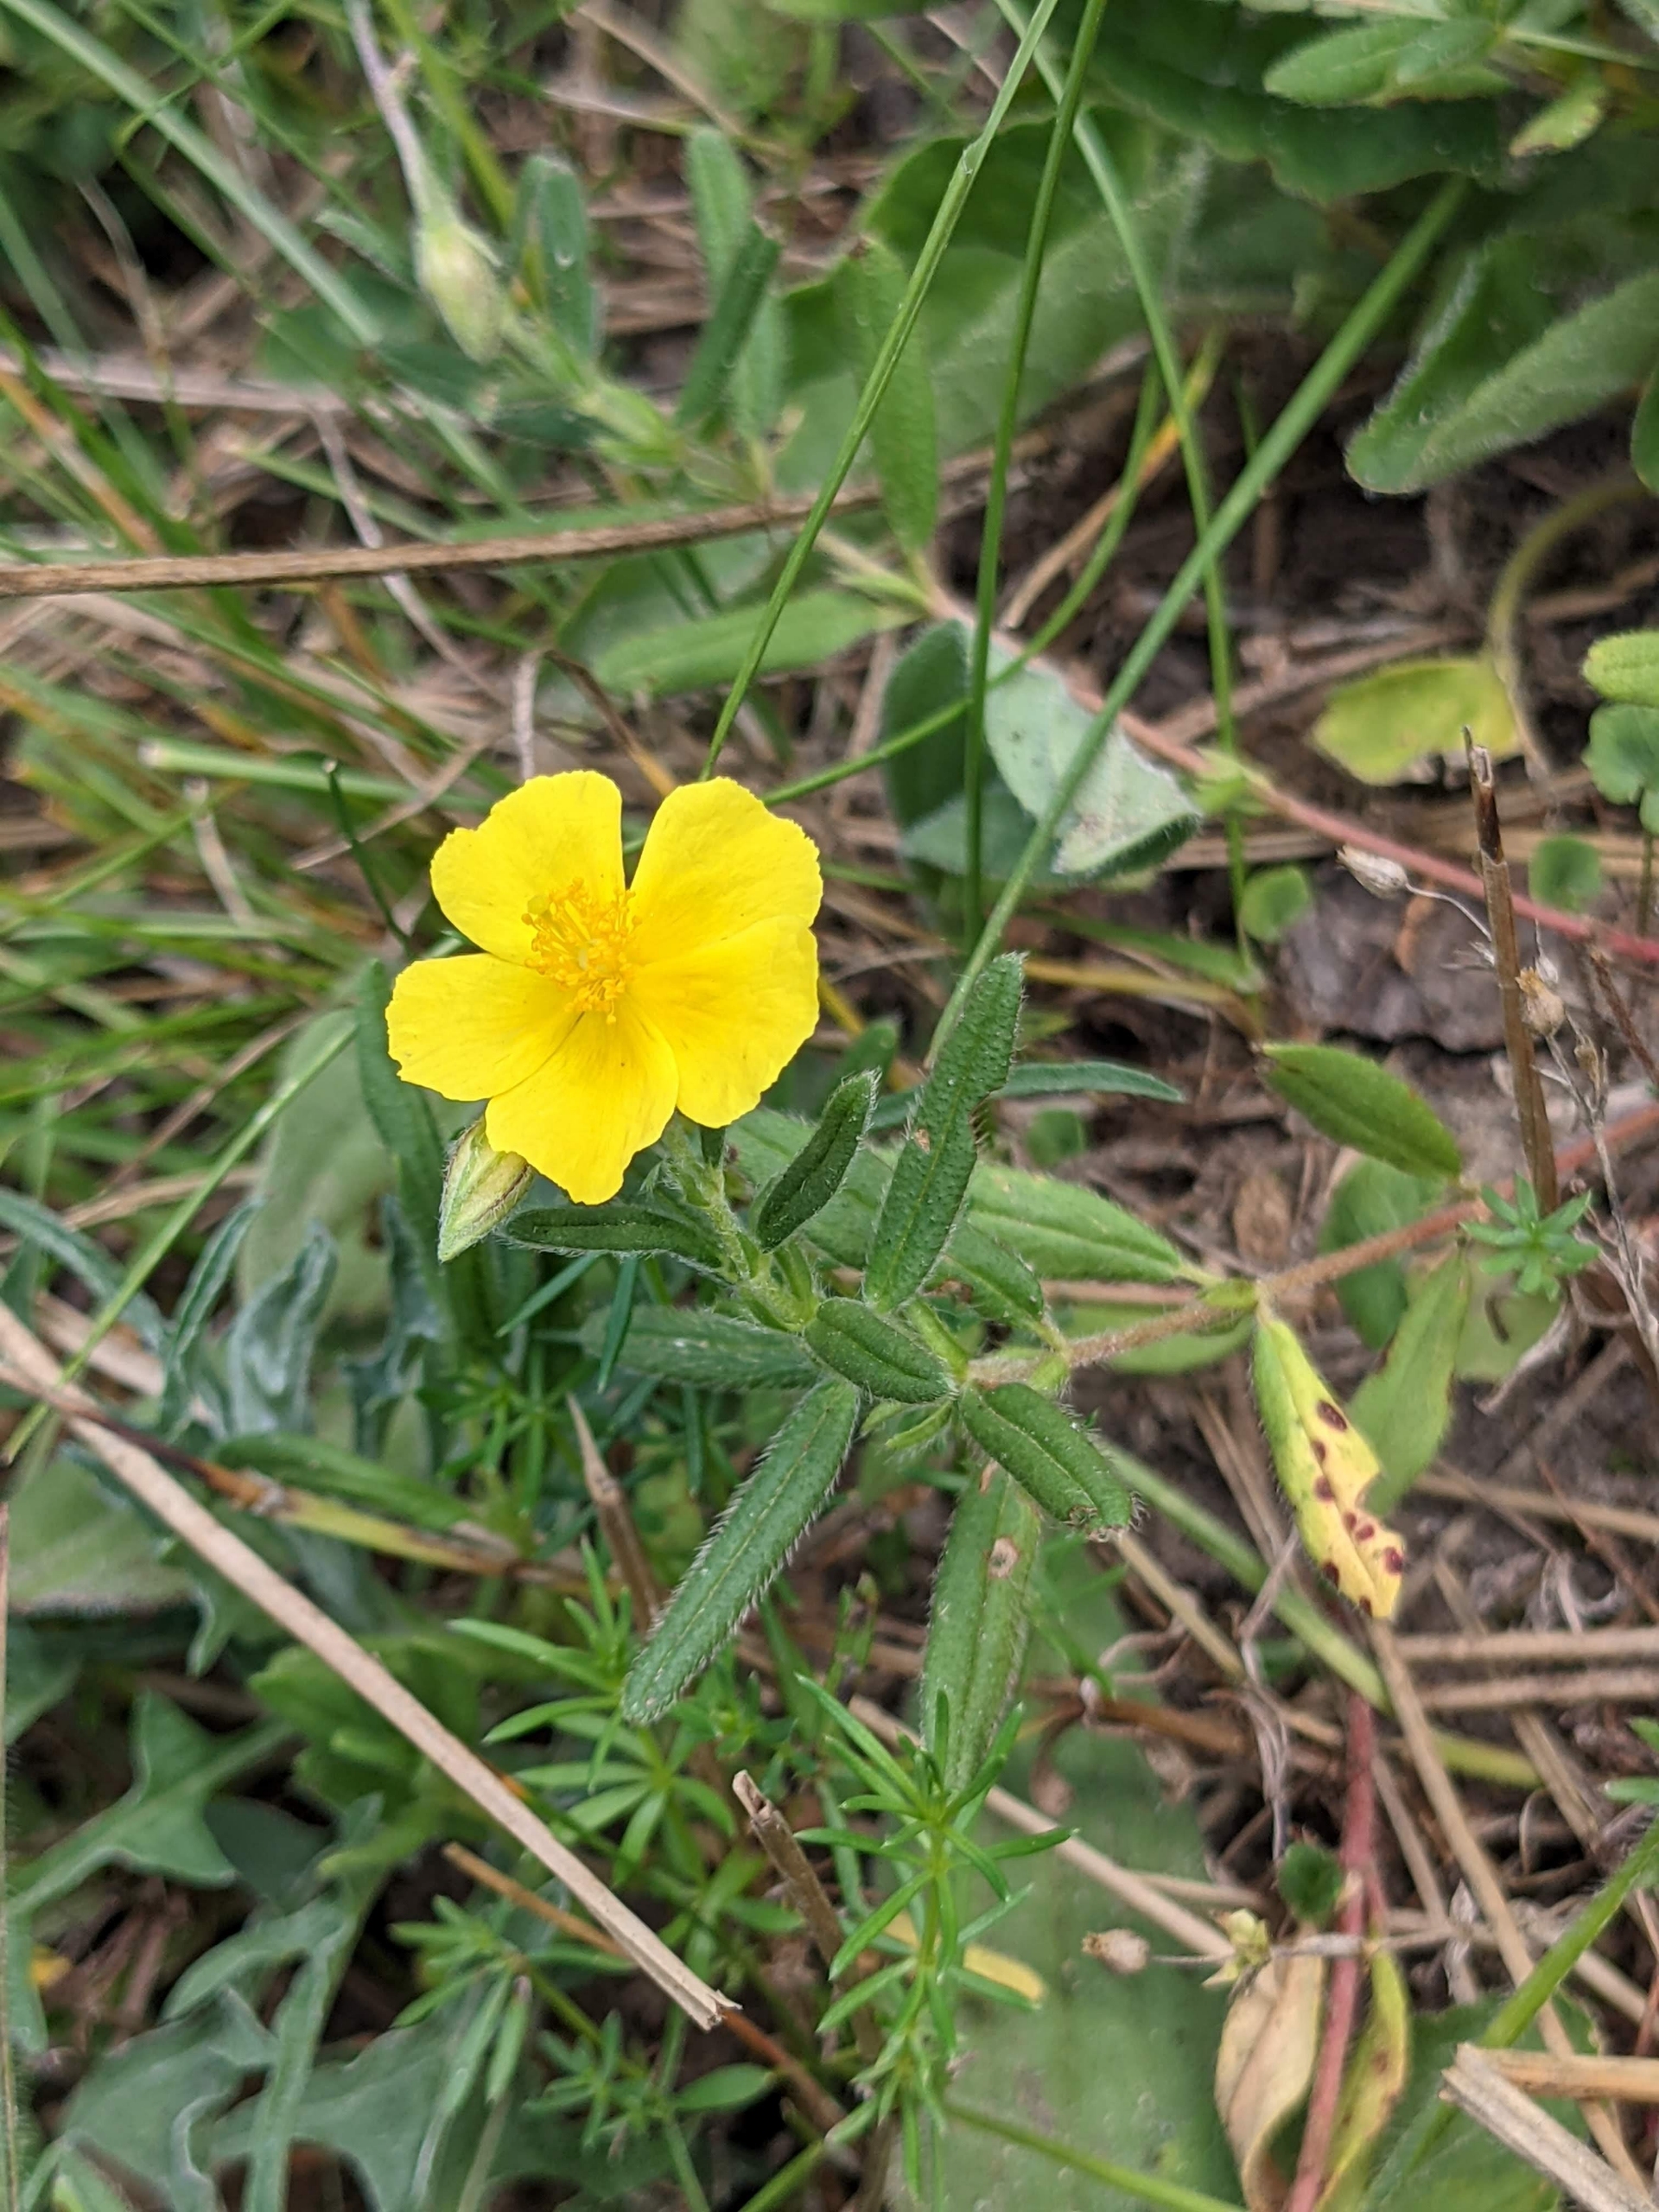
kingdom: Plantae
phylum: Tracheophyta
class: Magnoliopsida
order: Malvales
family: Cistaceae
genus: Helianthemum
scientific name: Helianthemum nummularium
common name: Bakke-soløje
